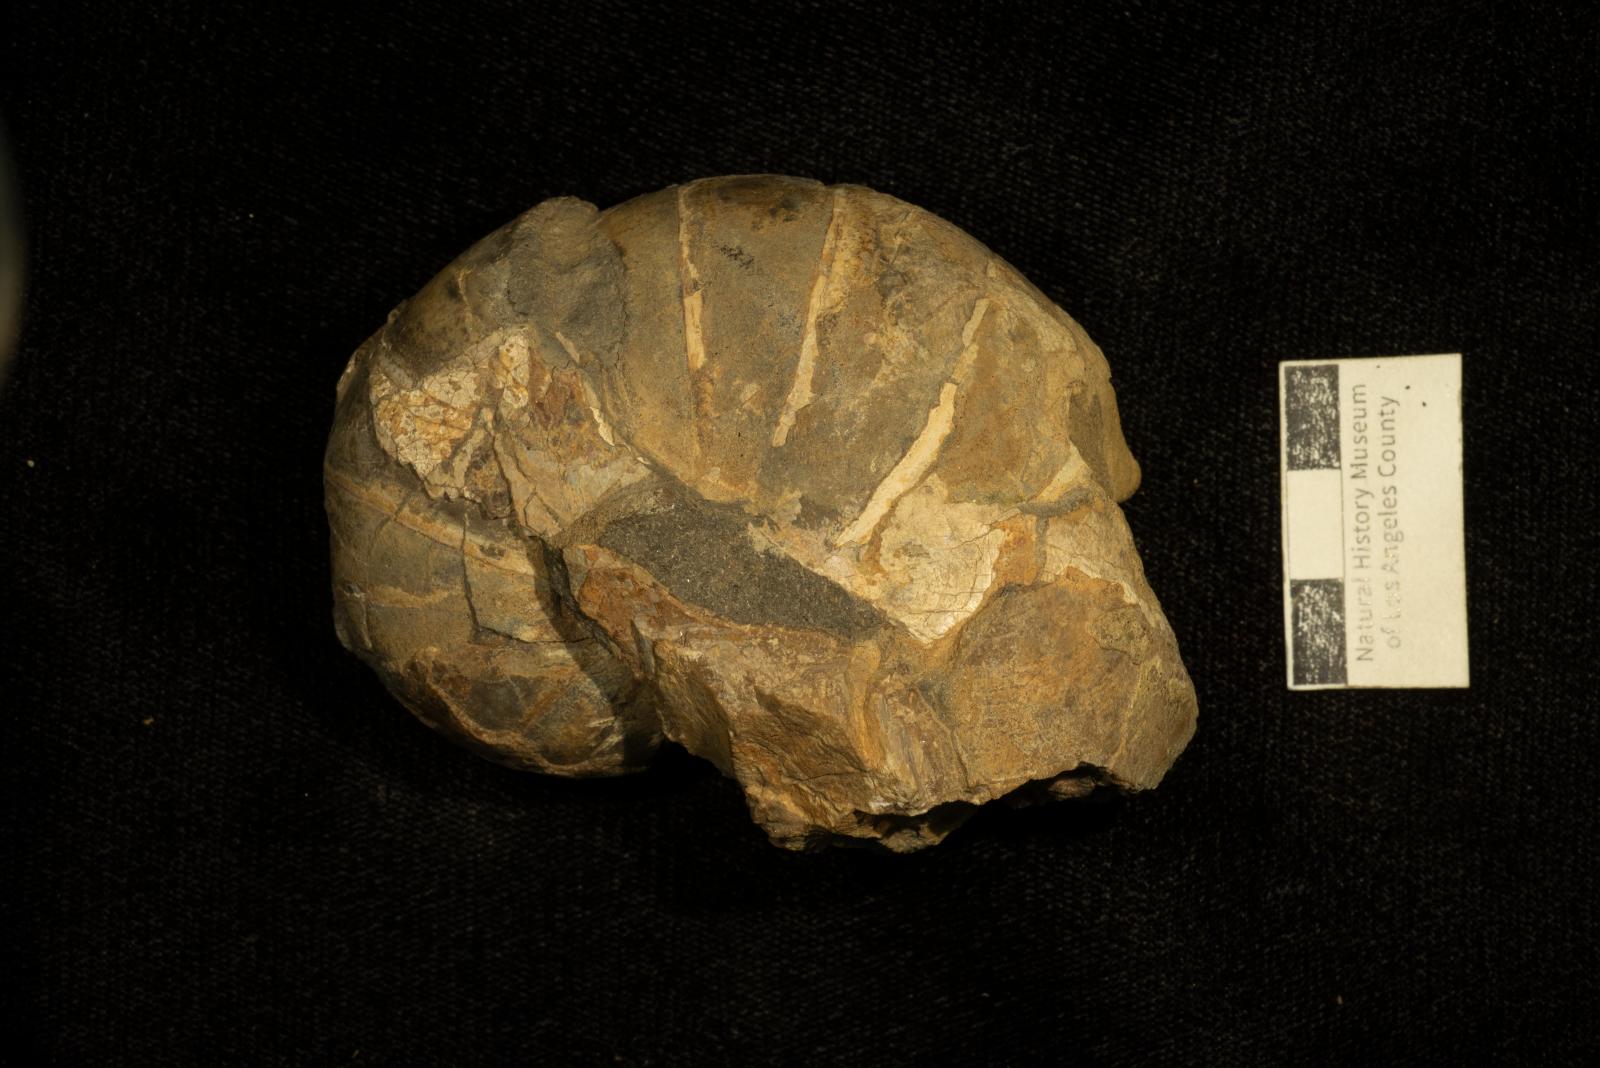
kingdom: Animalia
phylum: Mollusca
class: Cephalopoda
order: Nautilida
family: Nautilidae
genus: Eutrephoceras
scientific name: Eutrephoceras
